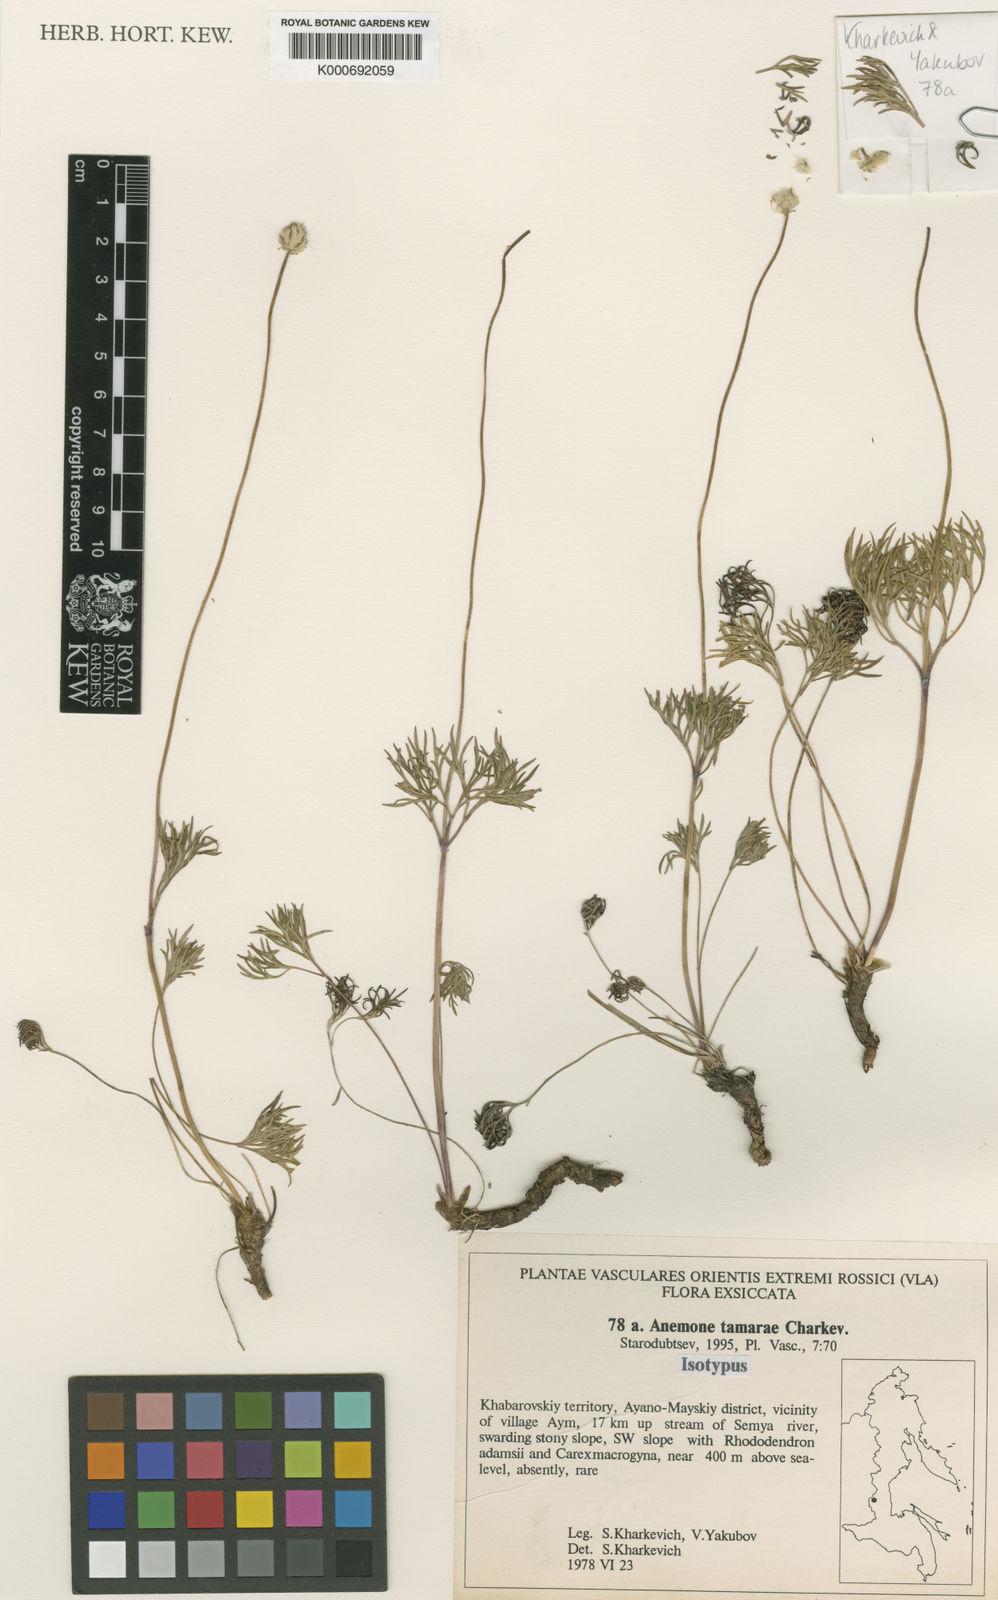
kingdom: Plantae
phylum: Tracheophyta
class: Magnoliopsida
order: Ranunculales
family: Ranunculaceae
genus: Anemone
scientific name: Anemone tamarae
